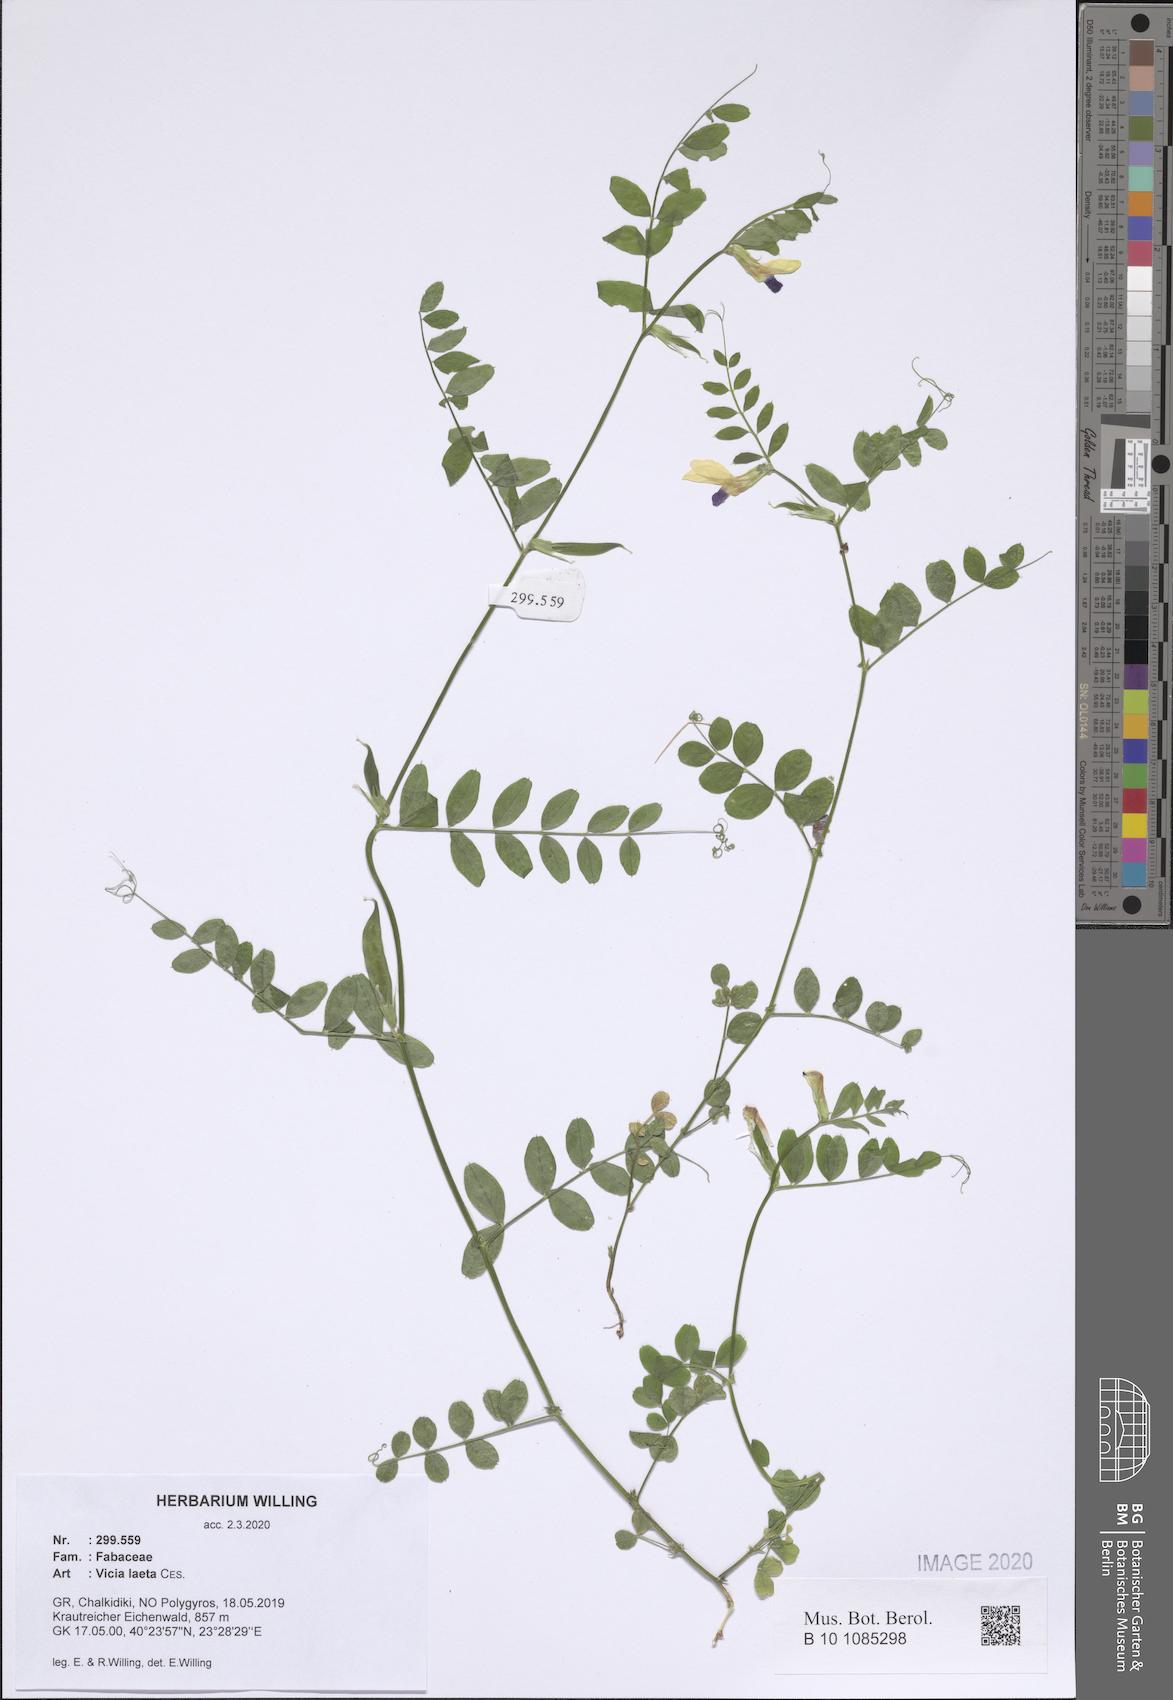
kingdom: Plantae
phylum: Tracheophyta
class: Magnoliopsida
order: Fabales
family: Fabaceae
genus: Vicia
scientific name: Vicia laeta
